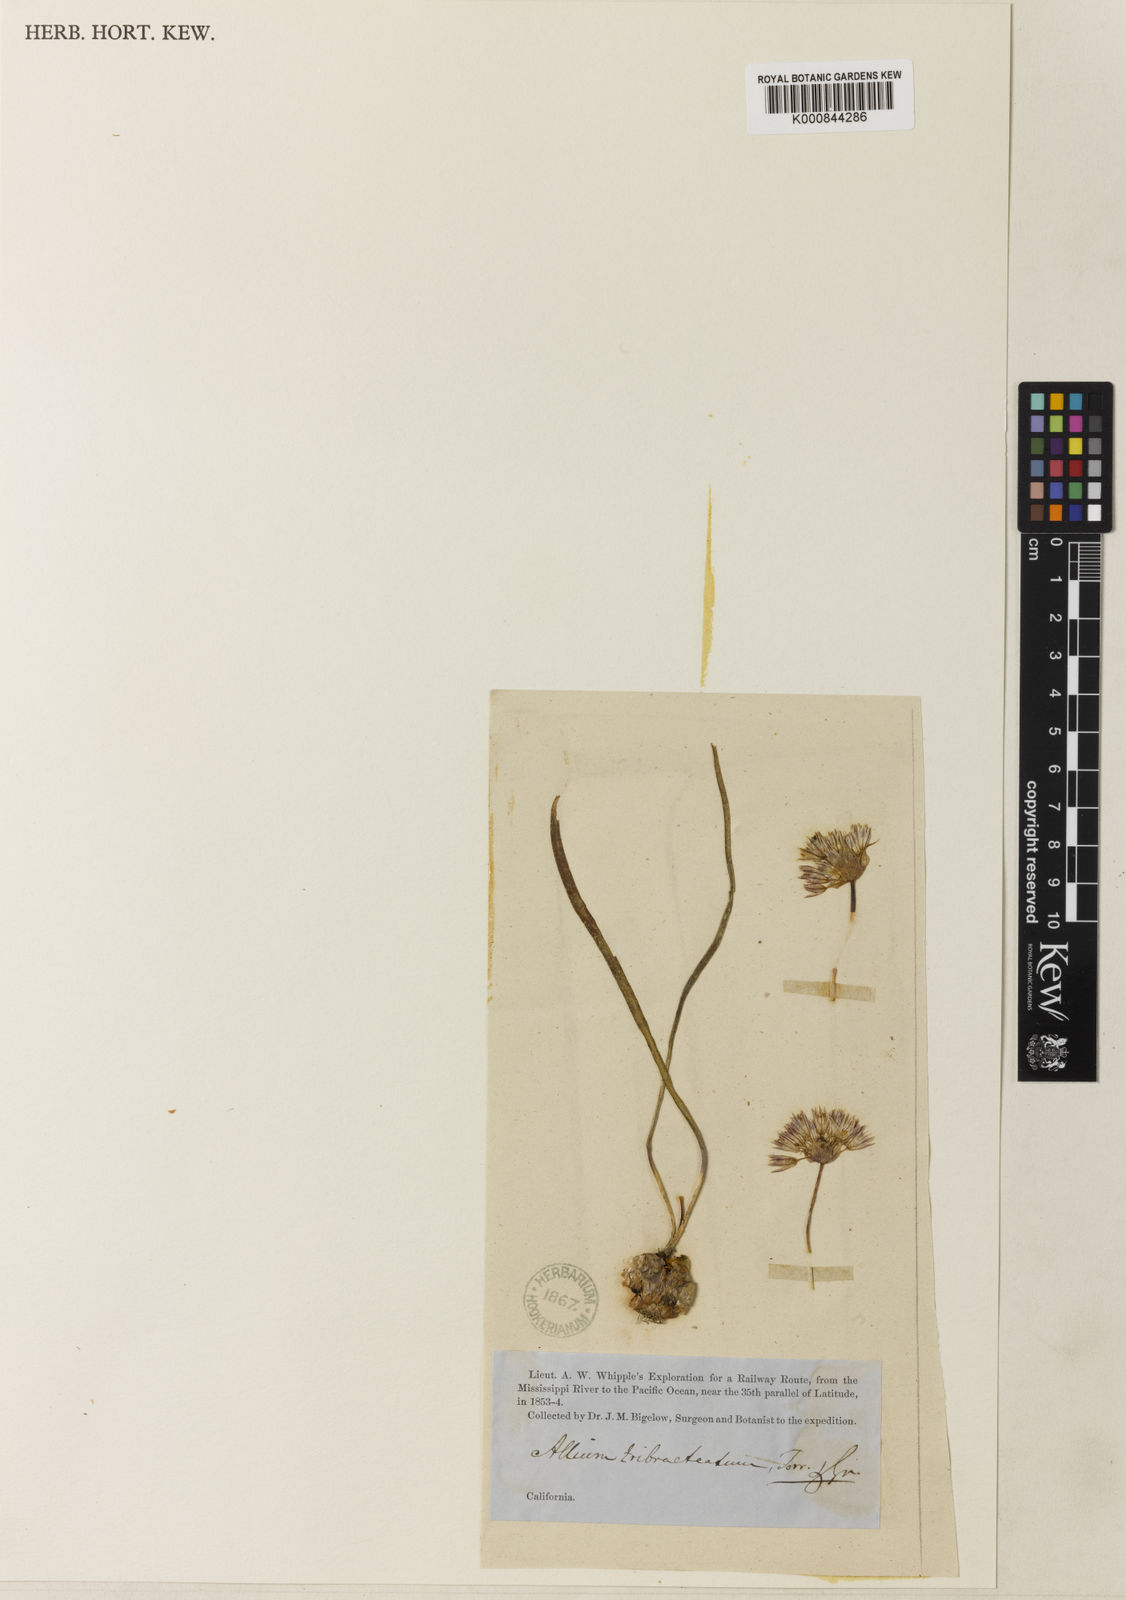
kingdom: Plantae
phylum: Tracheophyta
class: Liliopsida
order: Asparagales
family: Amaryllidaceae
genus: Allium
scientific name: Allium tribracteatum
